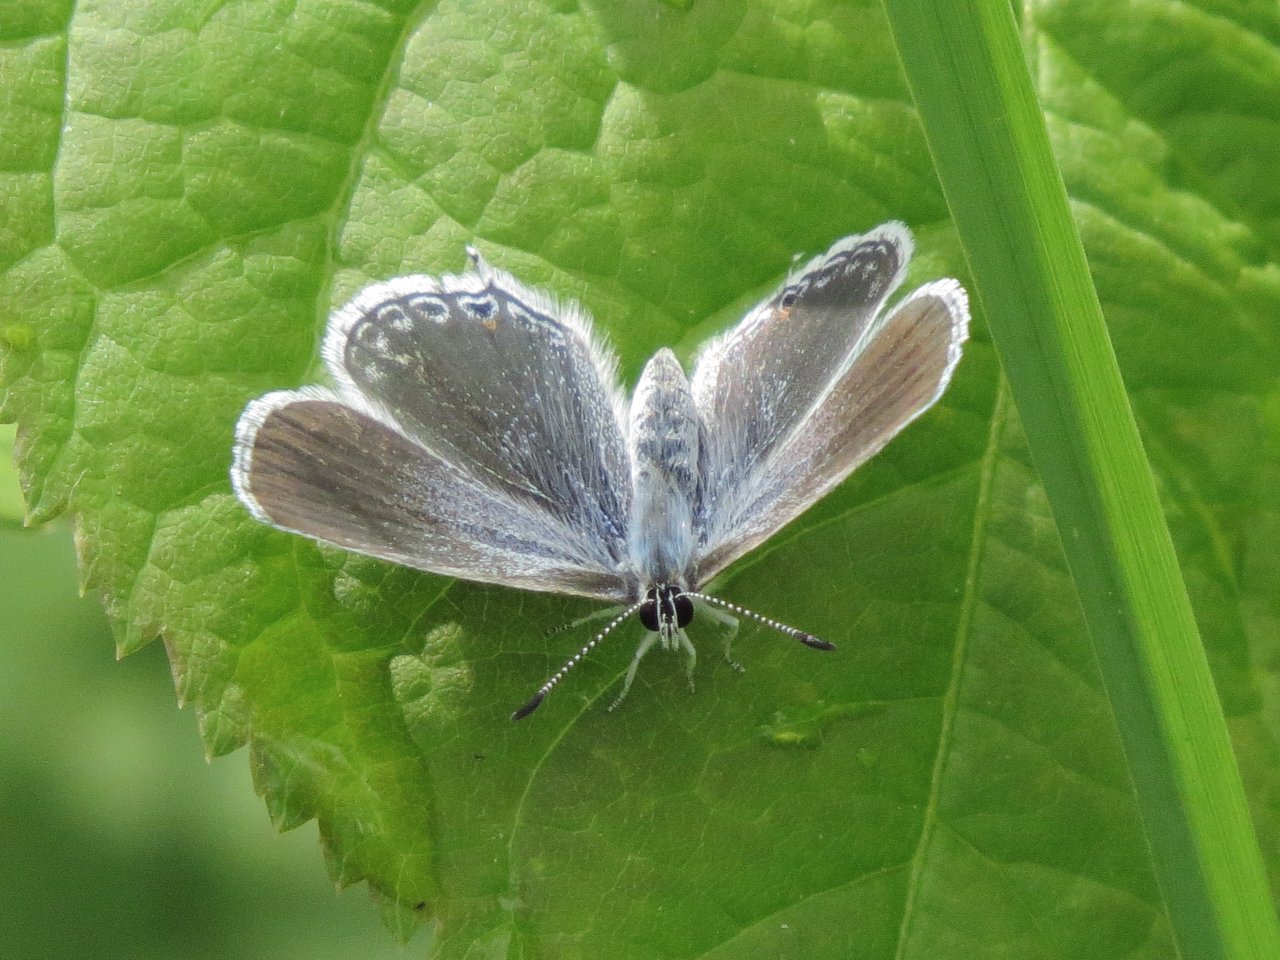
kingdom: Animalia
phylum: Arthropoda
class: Insecta
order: Lepidoptera
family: Lycaenidae
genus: Elkalyce
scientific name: Elkalyce amyntula
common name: Western Tailed-Blue
